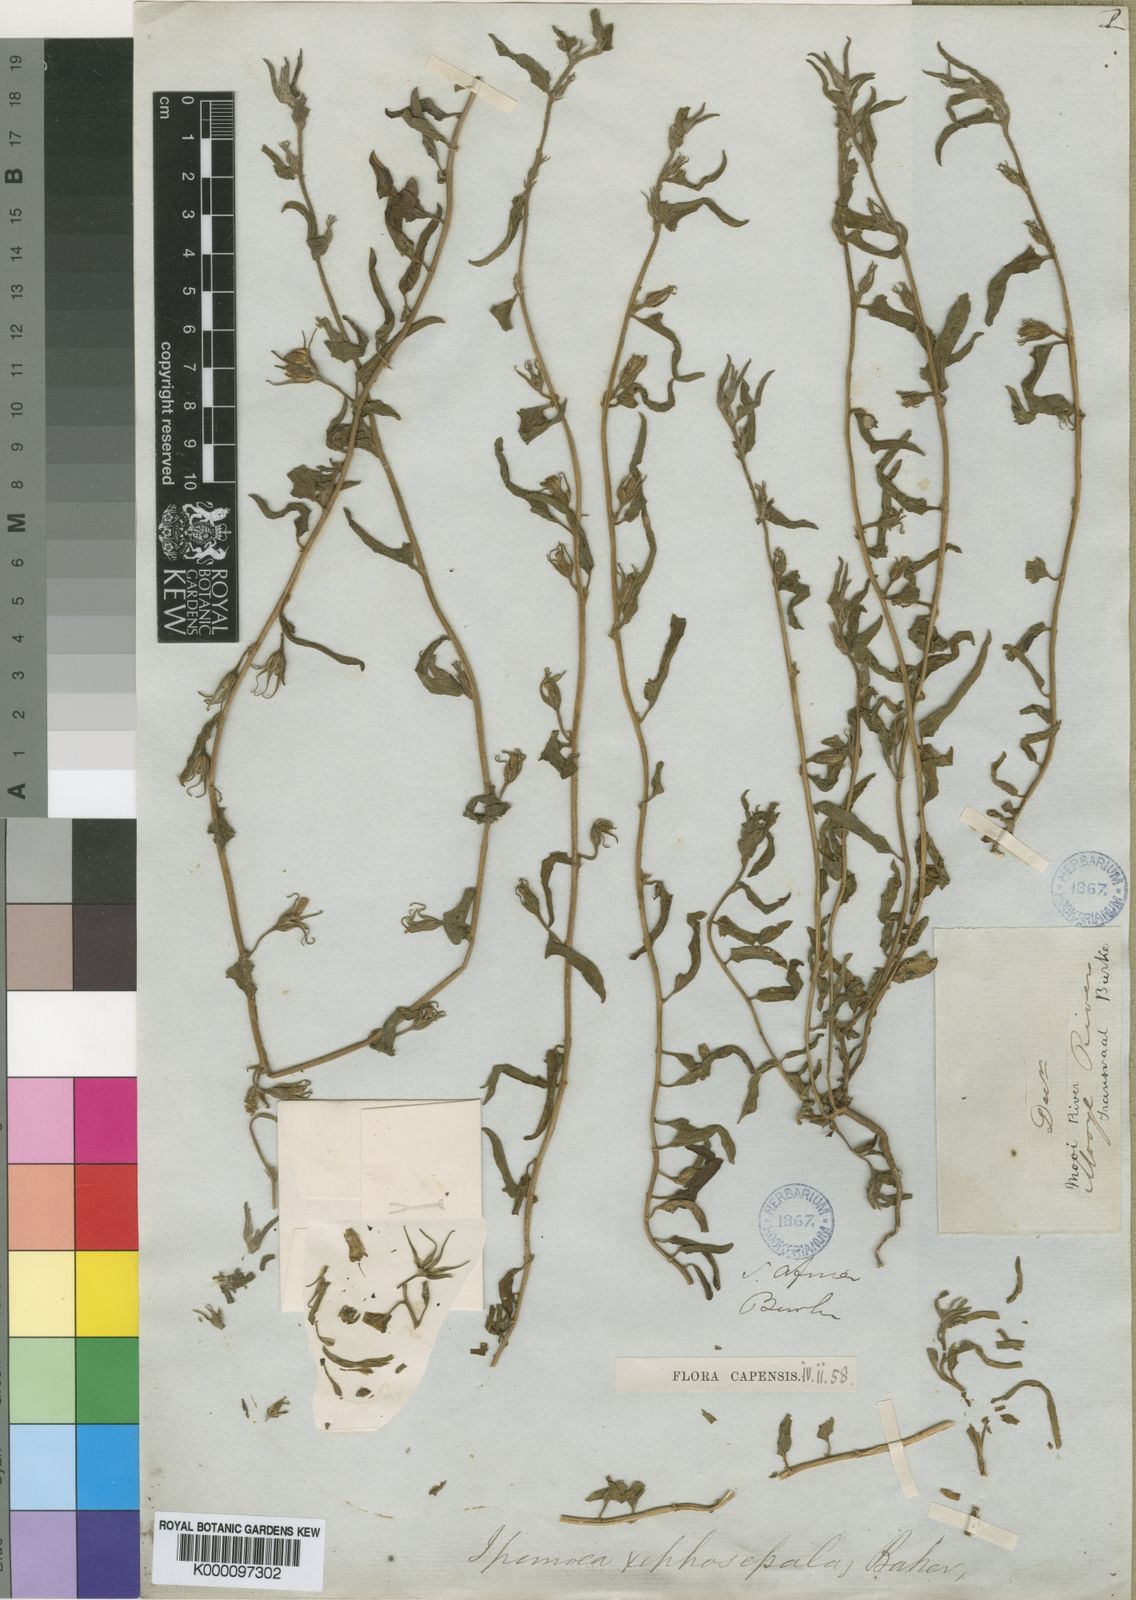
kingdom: Plantae
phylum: Tracheophyta
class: Magnoliopsida
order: Solanales
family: Convolvulaceae
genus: Ipomoea
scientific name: Ipomoea gracilisepala
